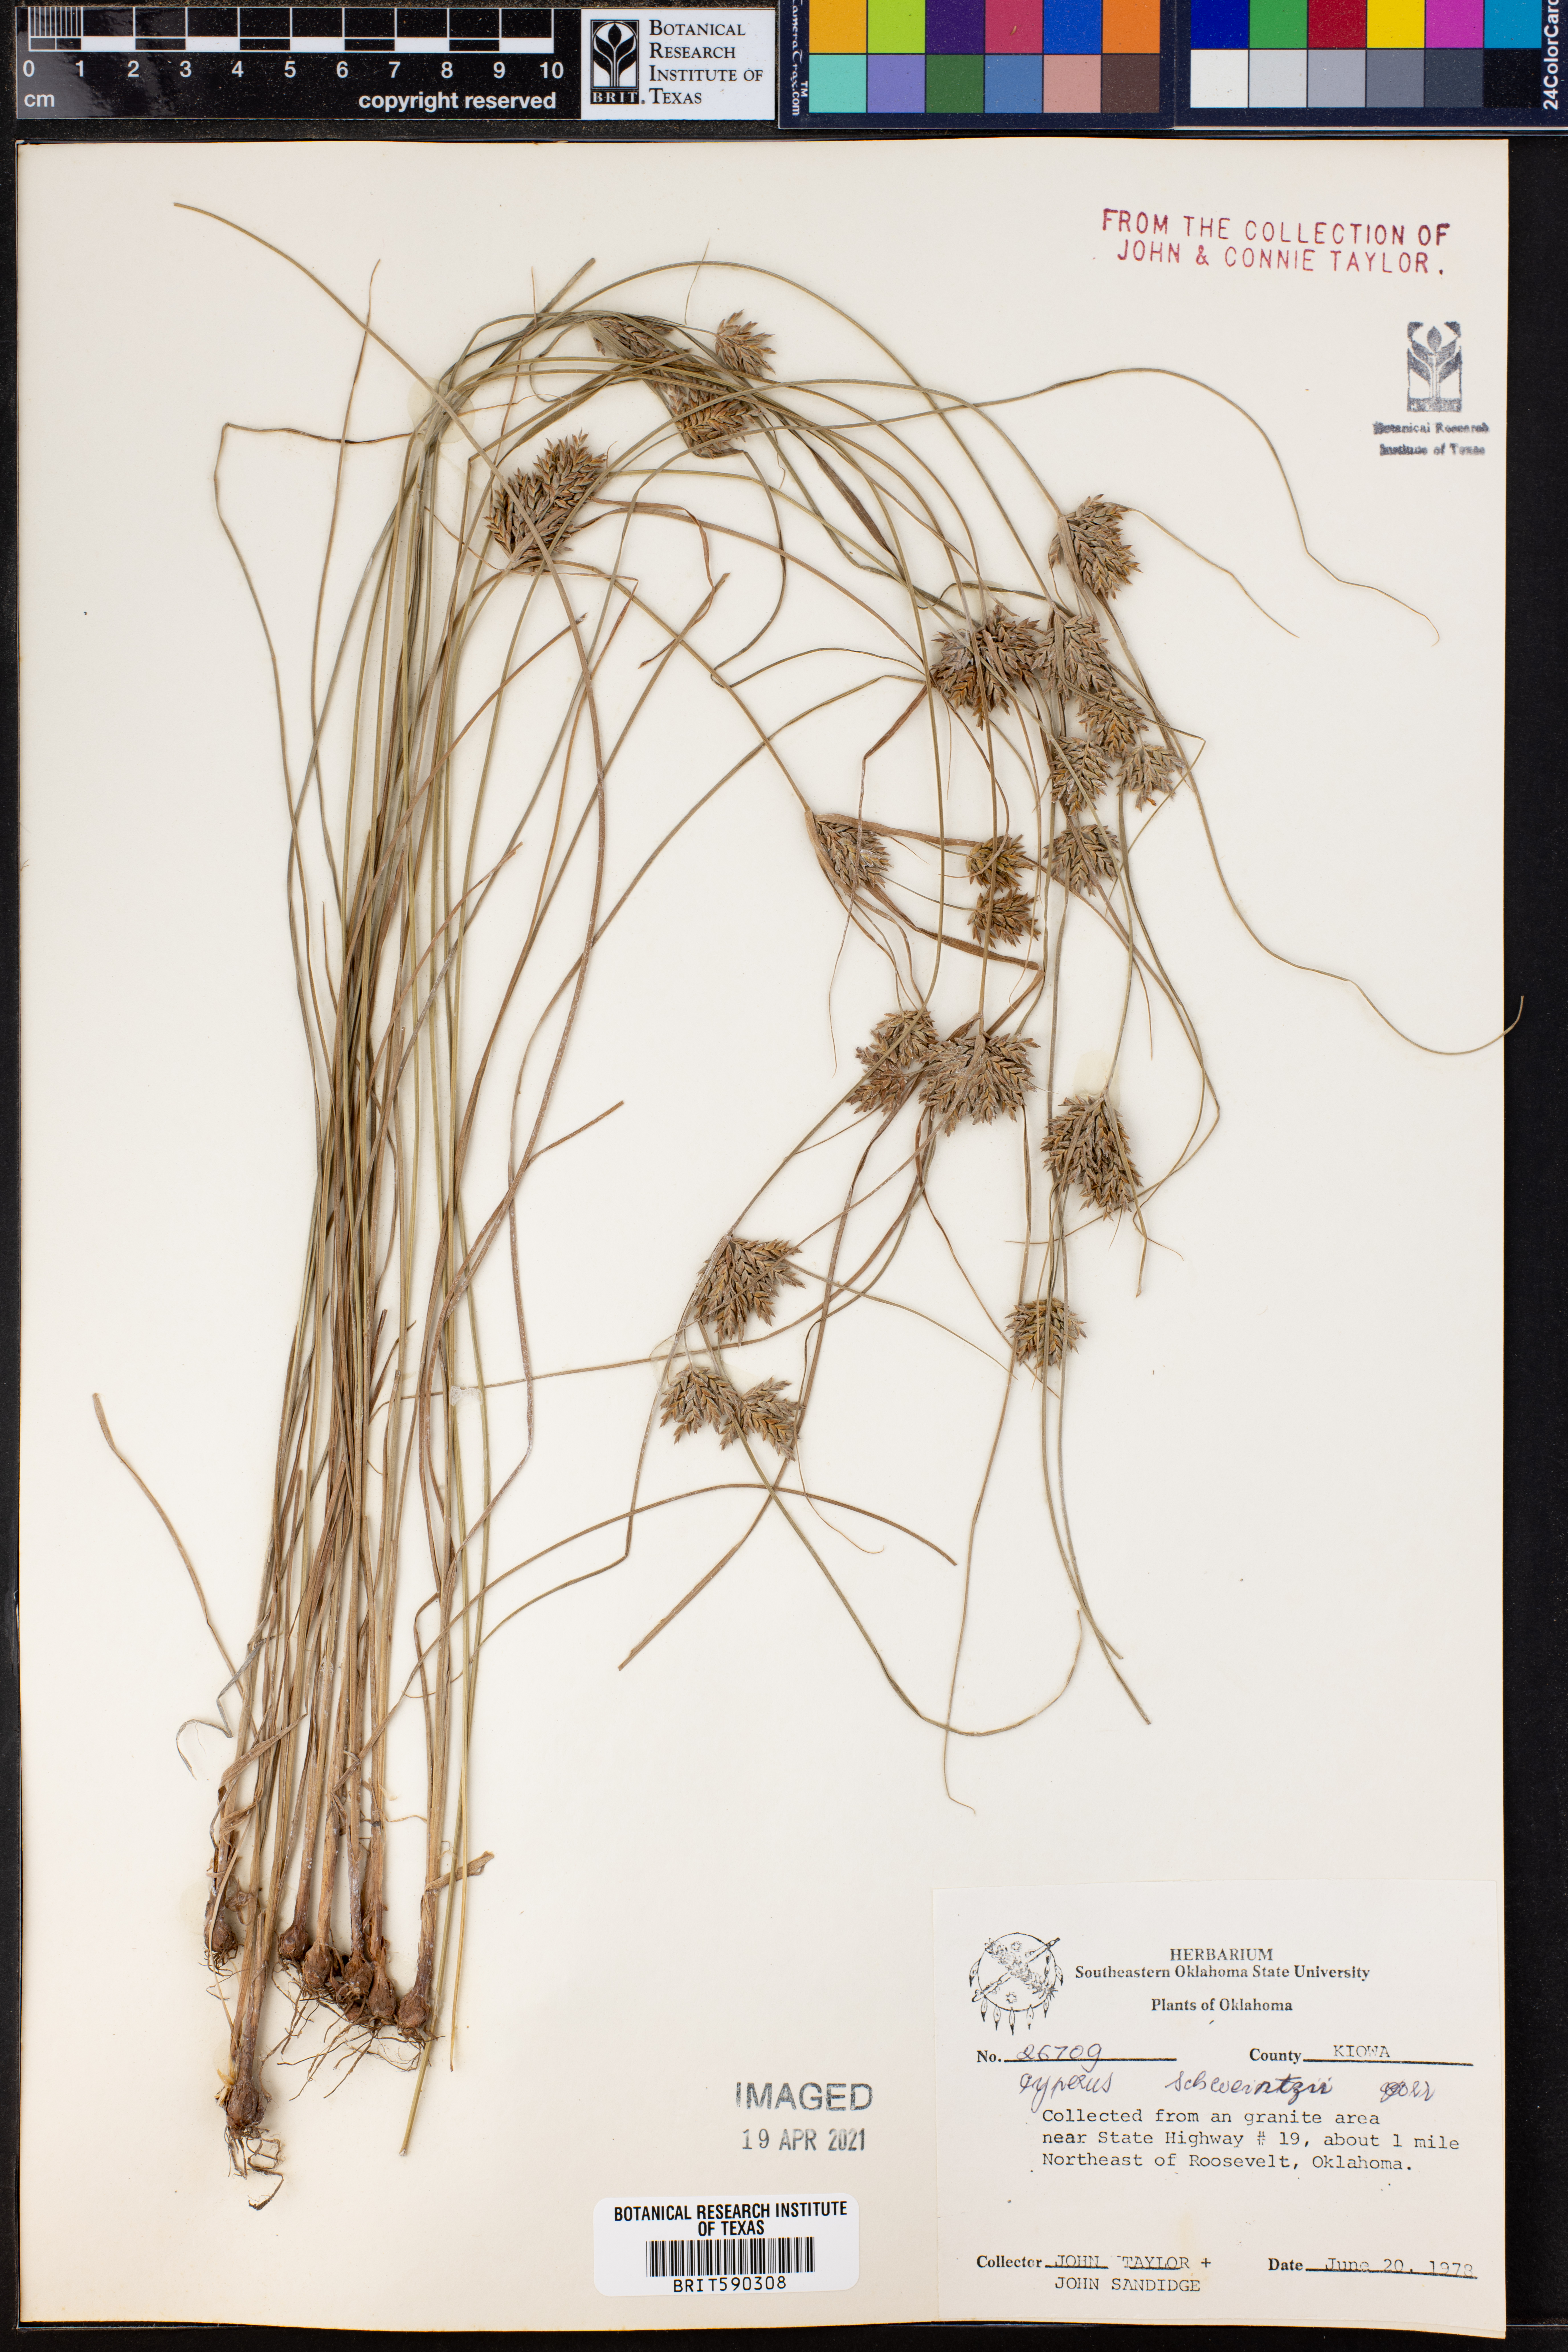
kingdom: Plantae
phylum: Tracheophyta
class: Liliopsida
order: Poales
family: Cyperaceae
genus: Cyperus
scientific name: Cyperus schweinitzii
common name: Schweinitz's cyperus
